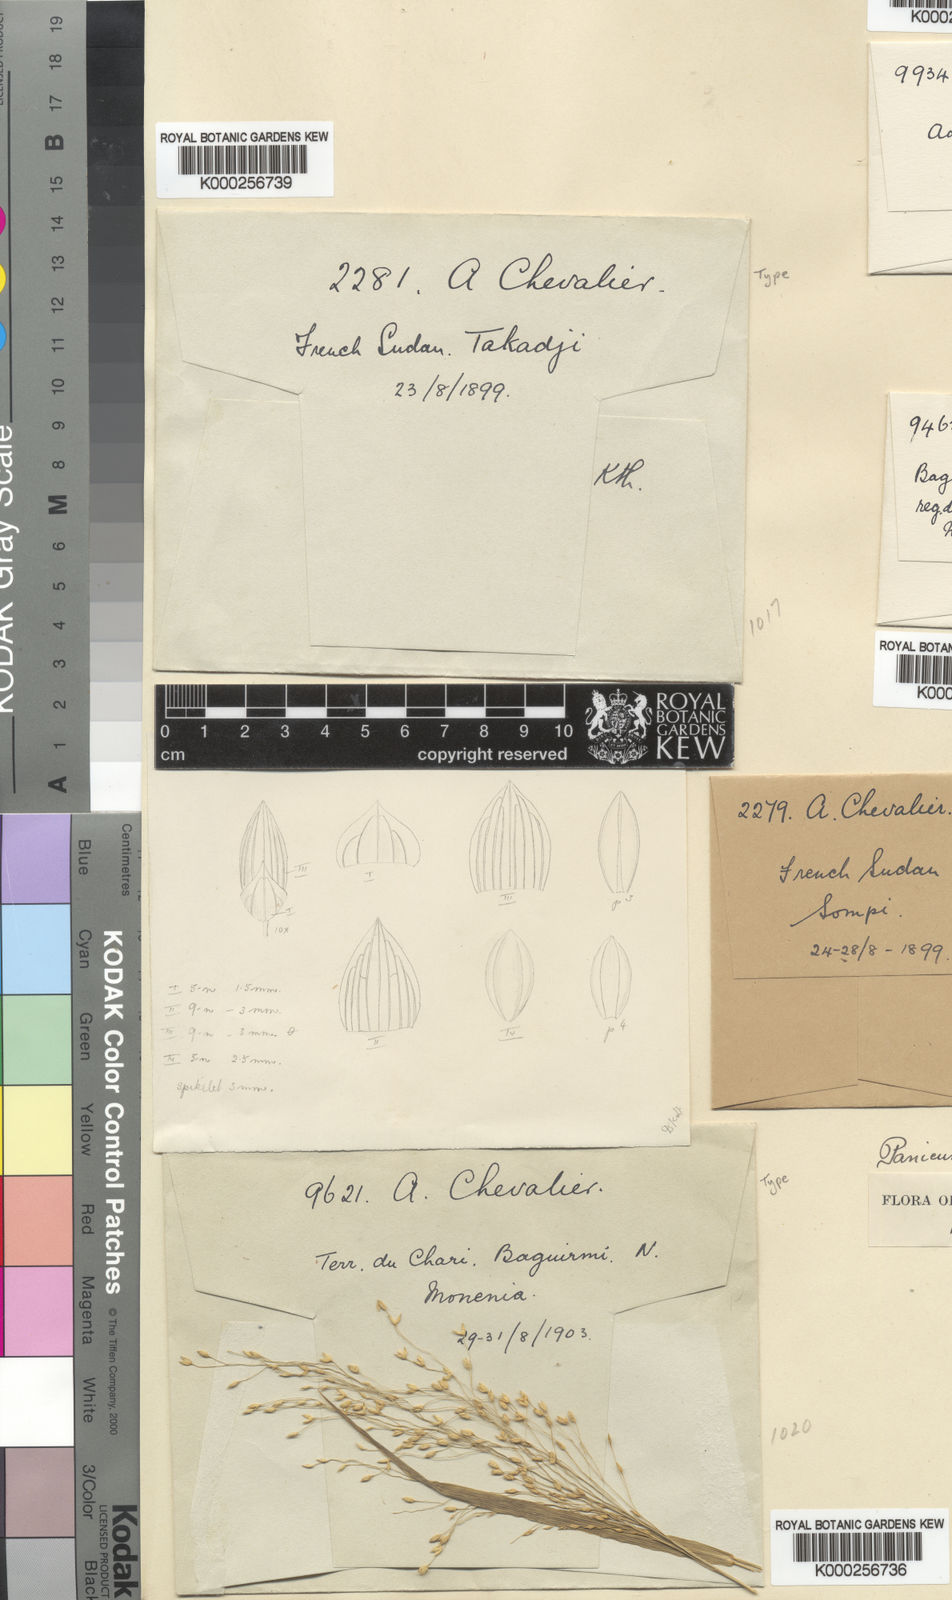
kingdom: Plantae
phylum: Tracheophyta
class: Liliopsida
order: Poales
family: Poaceae
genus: Panicum
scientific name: Panicum laetum
